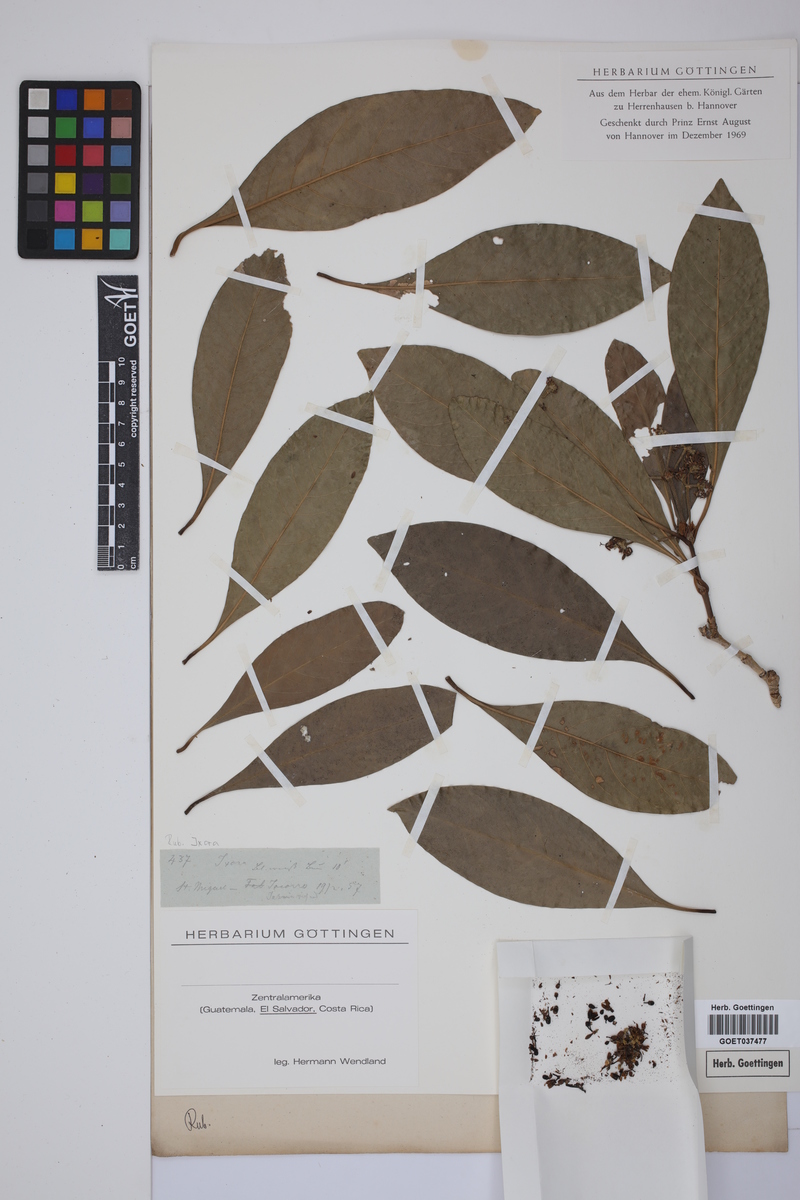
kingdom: Plantae
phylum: Tracheophyta
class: Magnoliopsida
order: Gentianales
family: Rubiaceae
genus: Ixora
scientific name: Ixora
